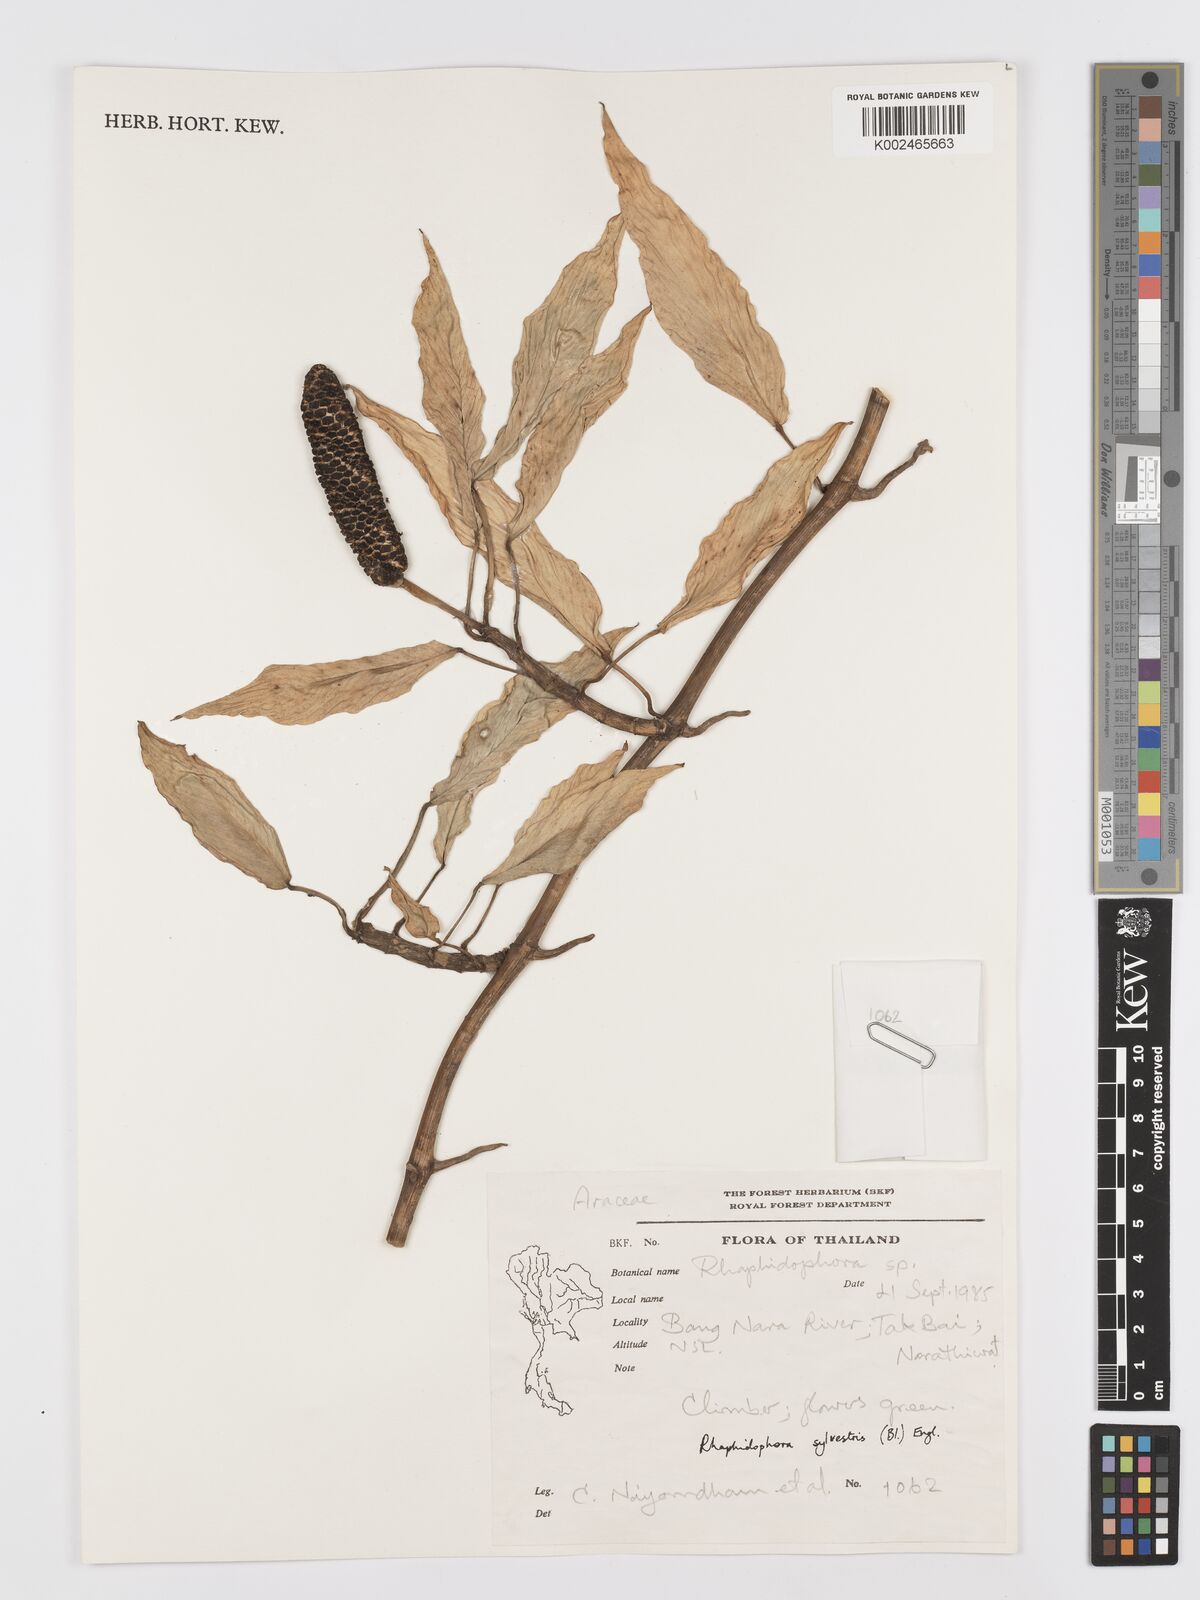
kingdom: Plantae
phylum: Tracheophyta
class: Liliopsida
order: Alismatales
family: Araceae
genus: Rhaphidophora
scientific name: Rhaphidophora minor
